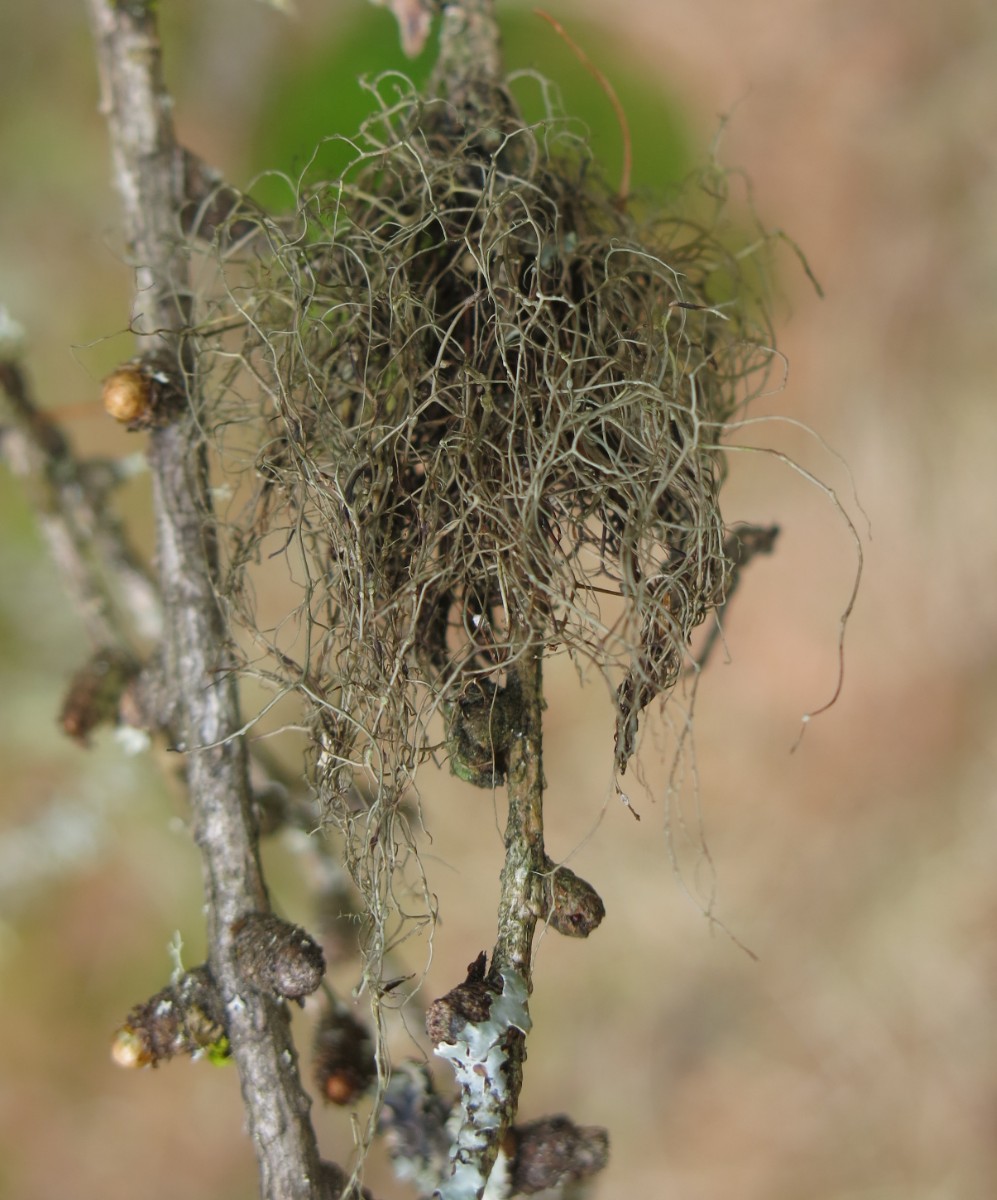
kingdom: Fungi
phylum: Ascomycota
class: Lecanoromycetes
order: Lecanorales
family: Parmeliaceae
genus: Bryoria
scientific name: Bryoria fuscescens
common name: almindelig mankelav
